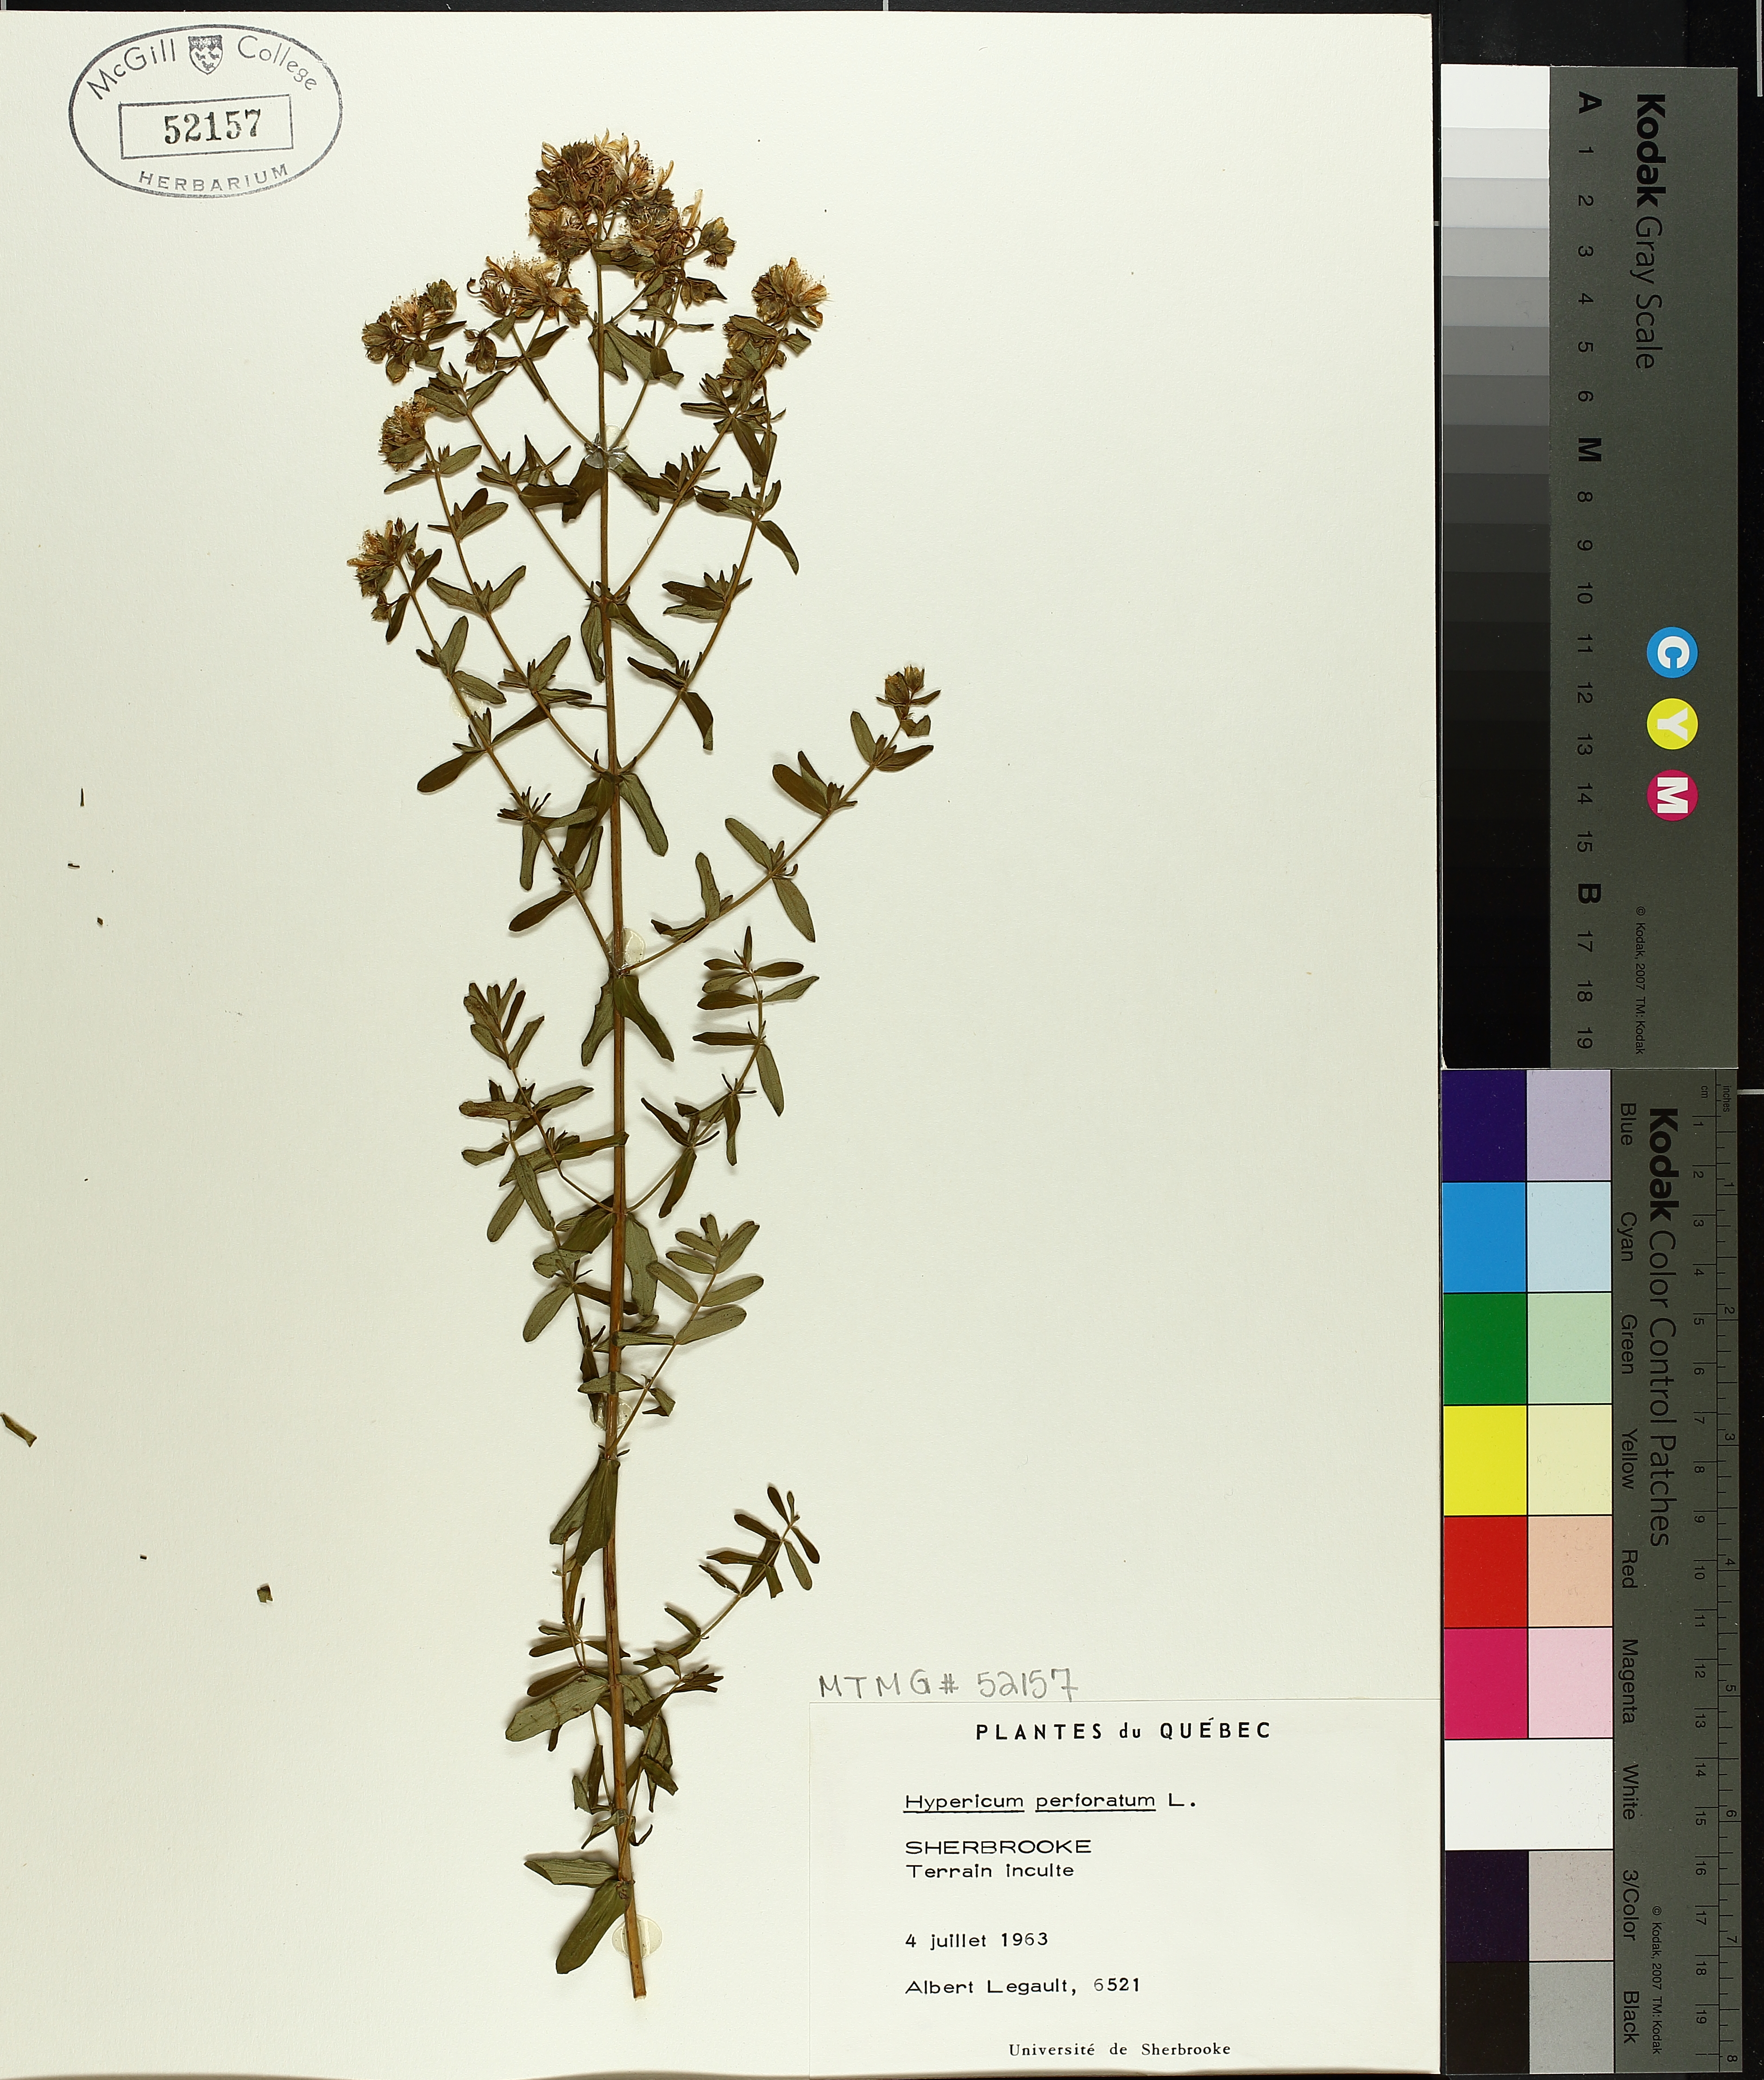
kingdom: Plantae
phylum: Tracheophyta
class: Magnoliopsida
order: Malpighiales
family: Hypericaceae
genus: Hypericum
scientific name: Hypericum perforatum
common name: Common st. johnswort
